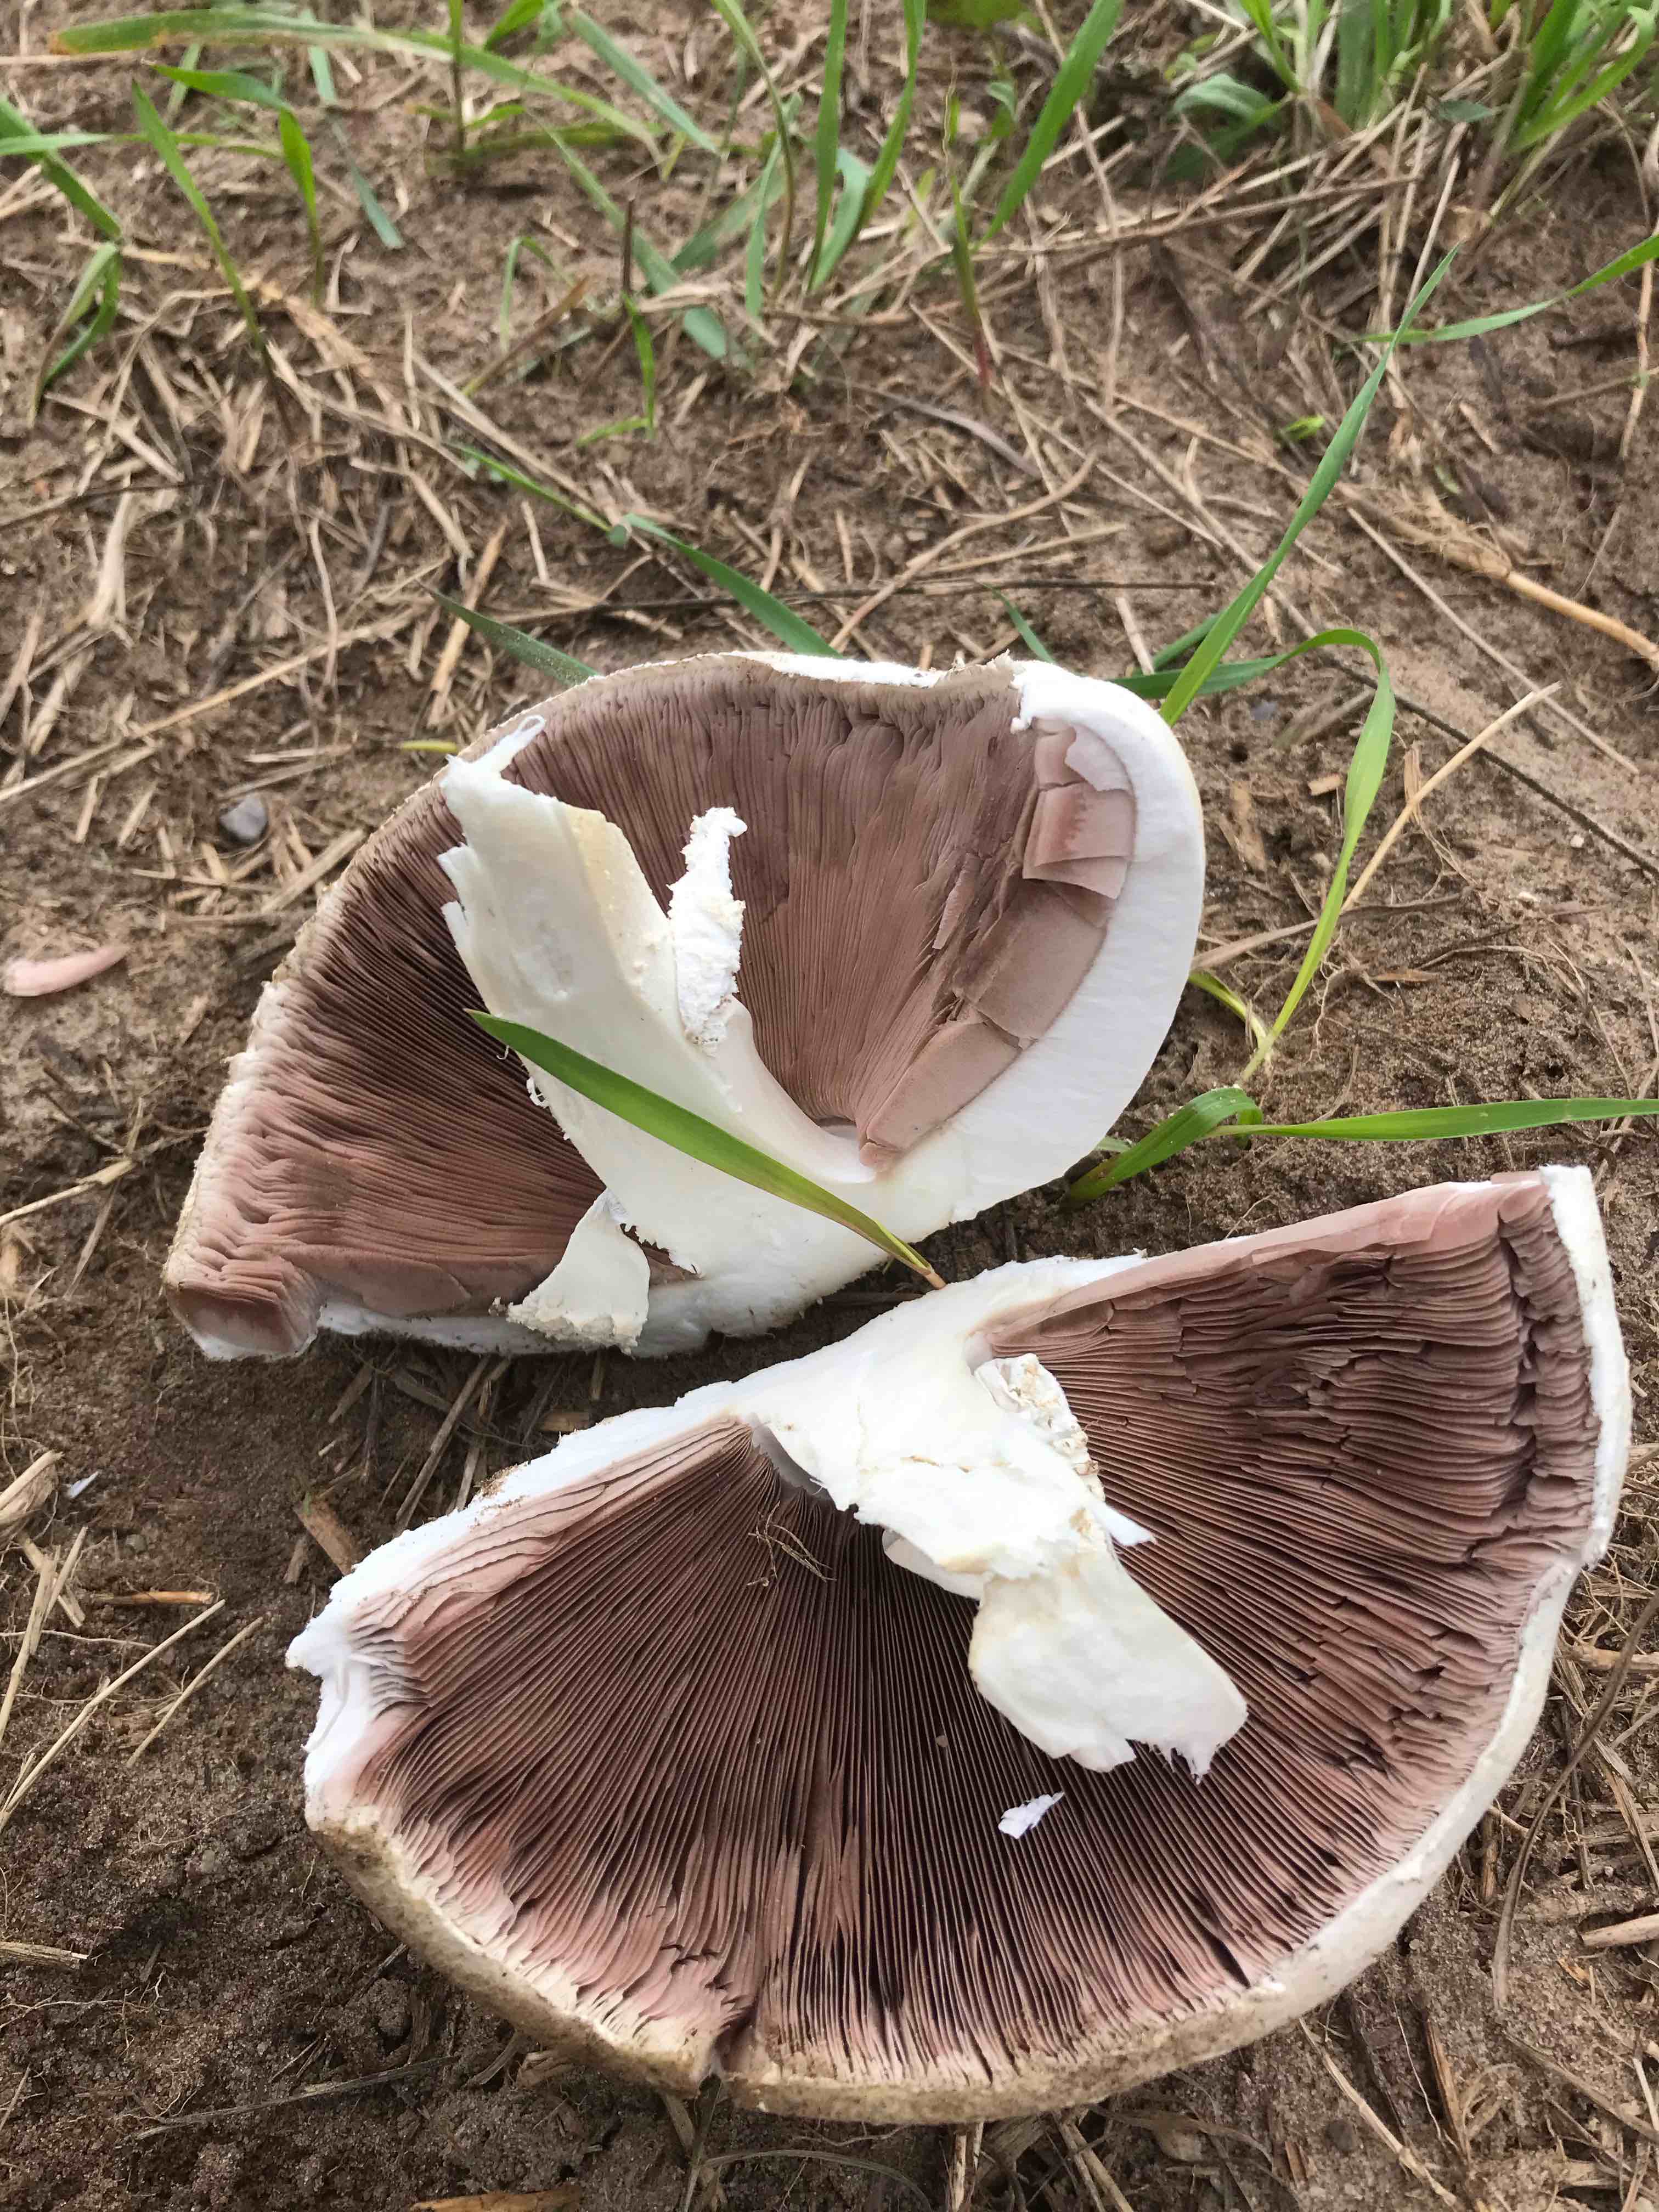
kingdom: Fungi
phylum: Basidiomycota
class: Agaricomycetes
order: Agaricales
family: Agaricaceae
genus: Agaricus
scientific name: Agaricus
